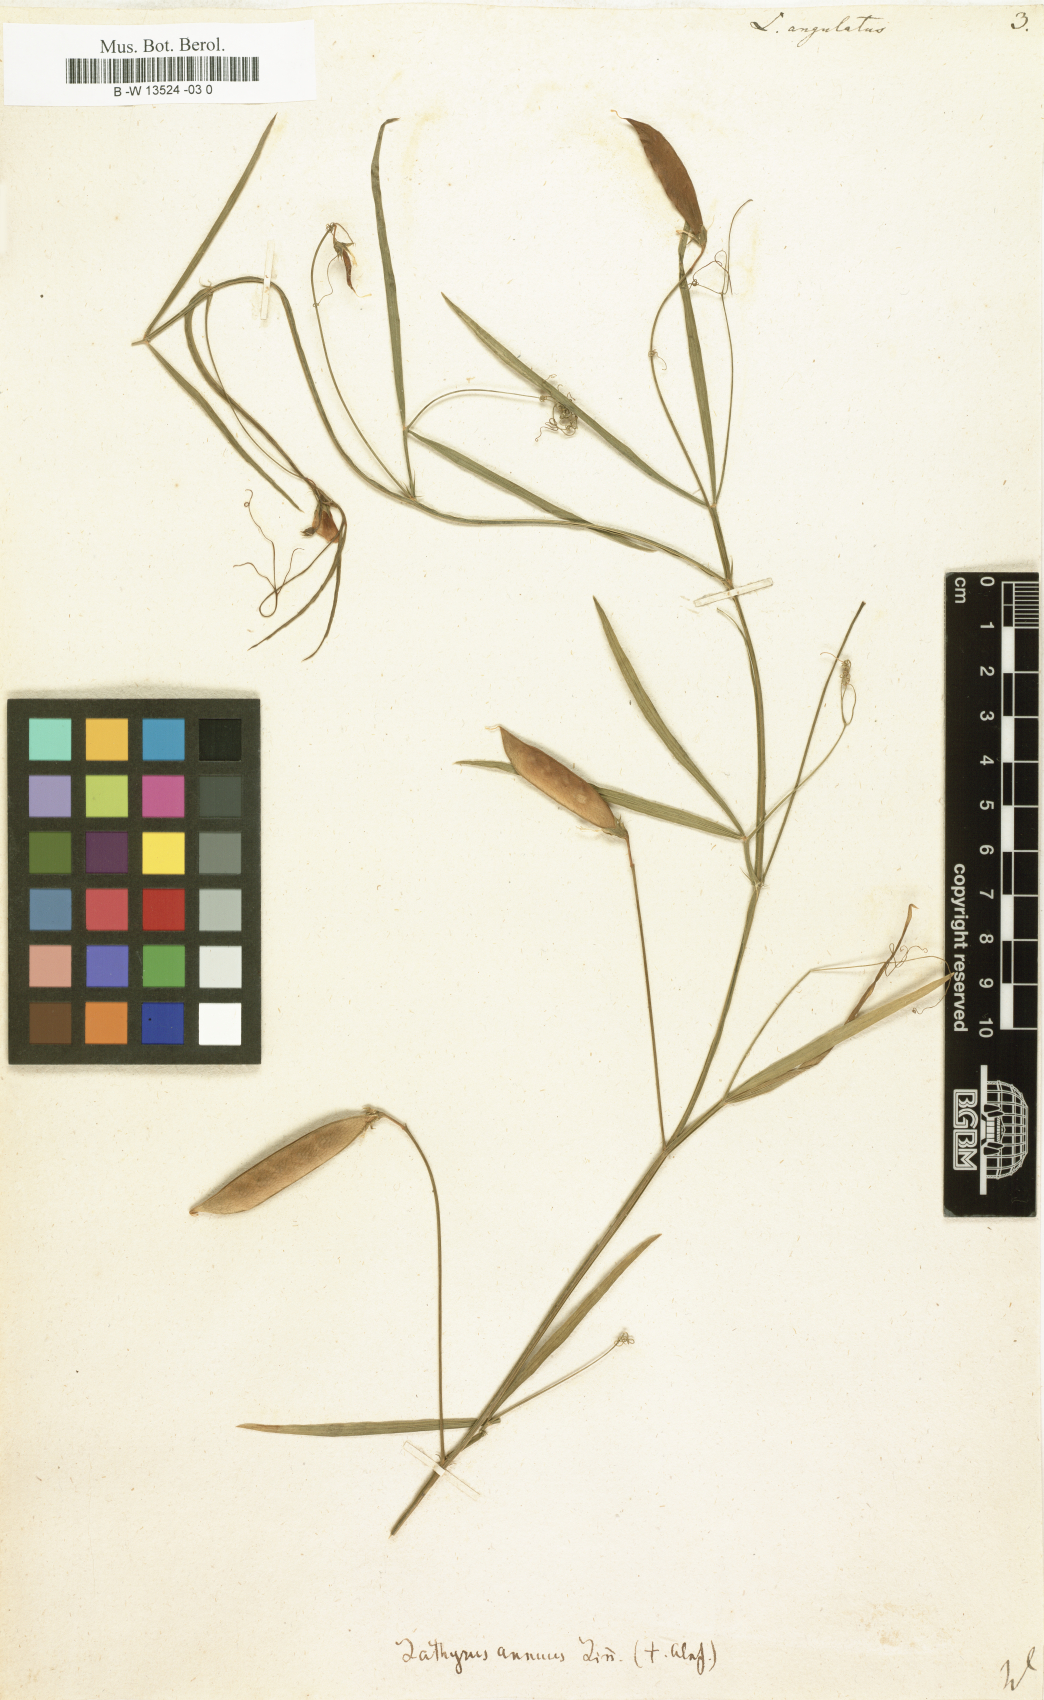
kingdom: Plantae
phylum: Tracheophyta
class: Magnoliopsida
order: Fabales
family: Fabaceae
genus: Lathyrus
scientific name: Lathyrus angulatus
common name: Angular pea
